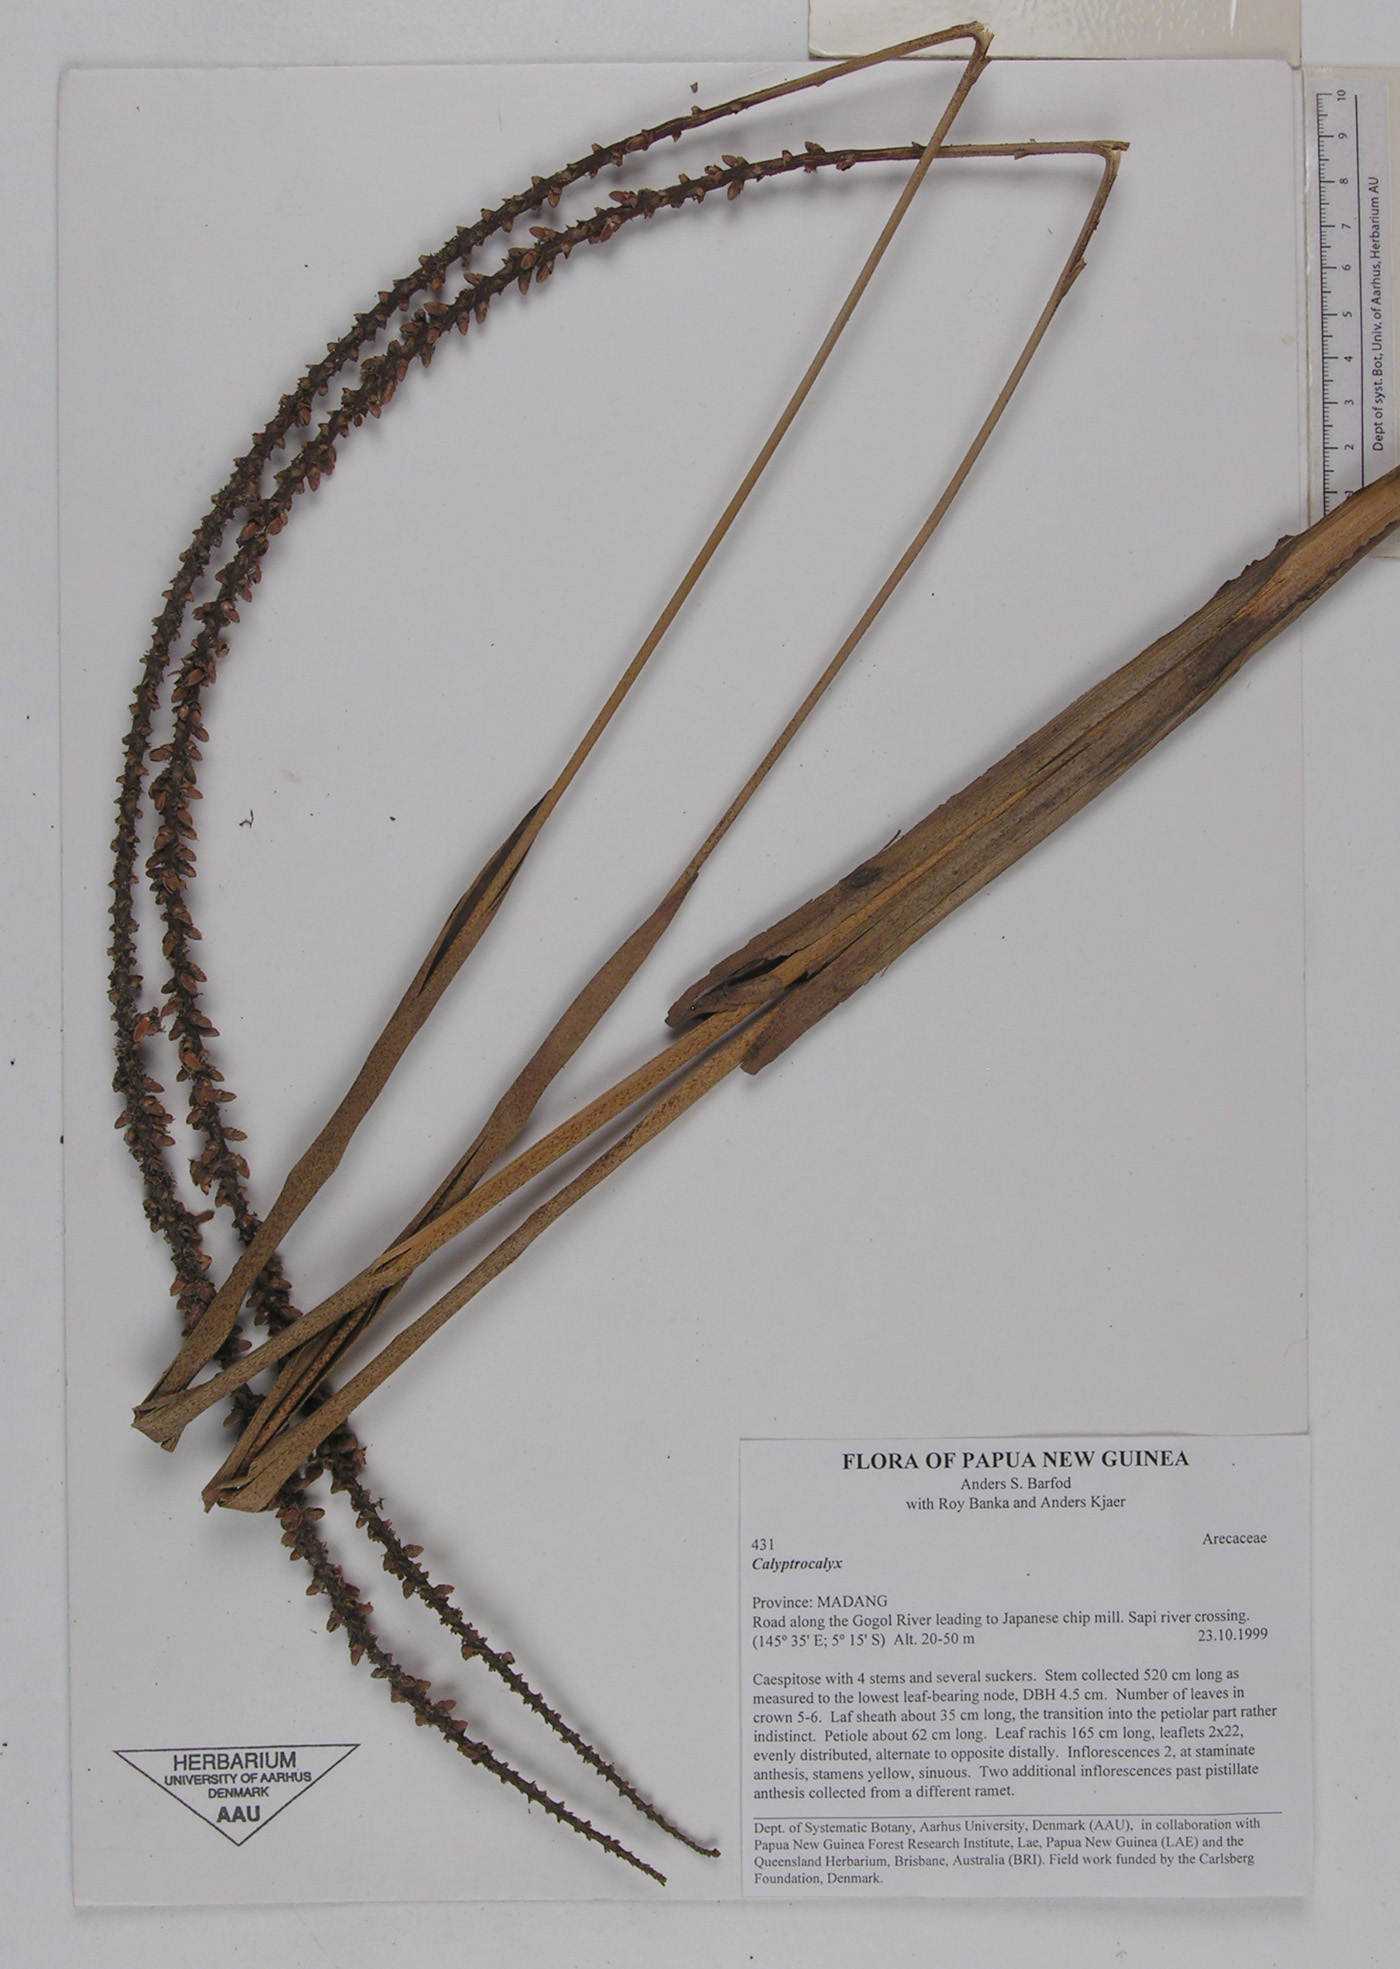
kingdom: Plantae
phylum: Tracheophyta
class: Liliopsida
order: Arecales
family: Arecaceae
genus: Calyptrocalyx
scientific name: Calyptrocalyx
